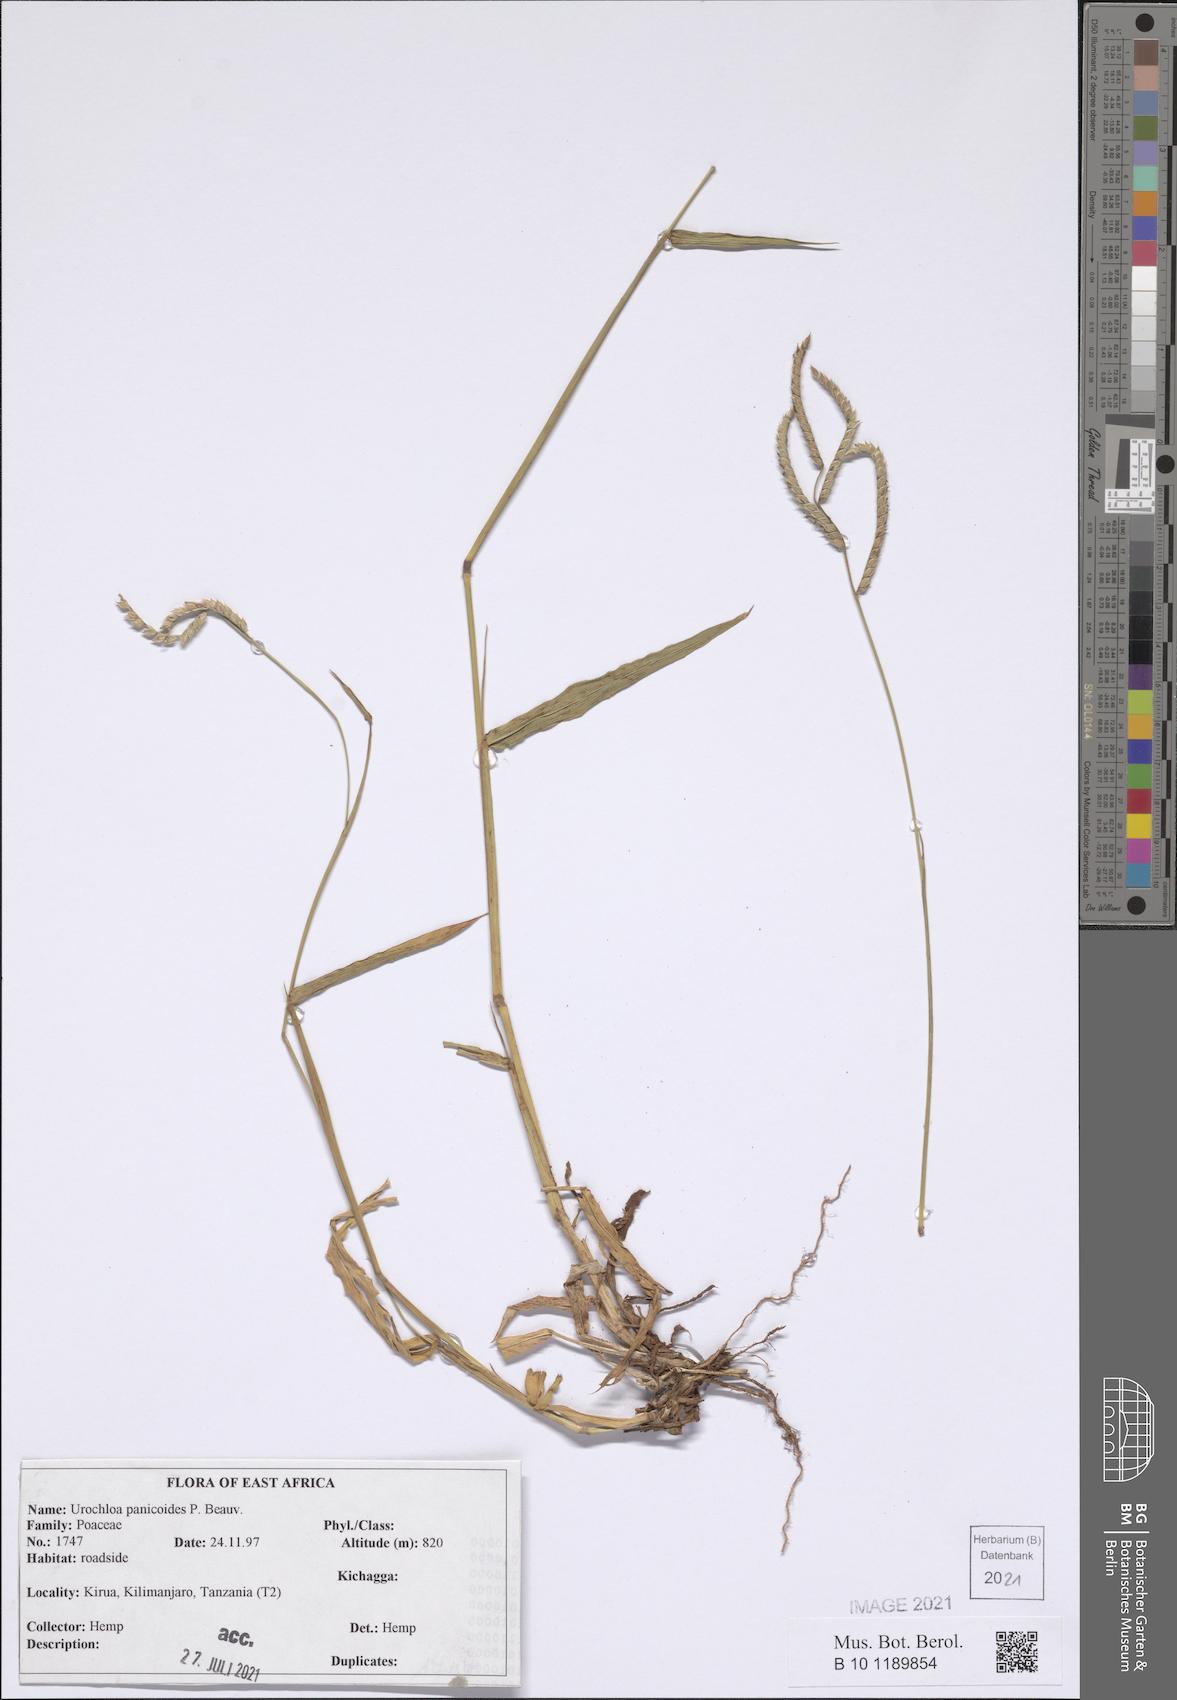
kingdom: Plantae
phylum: Tracheophyta
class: Liliopsida
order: Poales
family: Poaceae
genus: Urochloa
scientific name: Urochloa panicoides
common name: Sharp-flowered signal-grass
